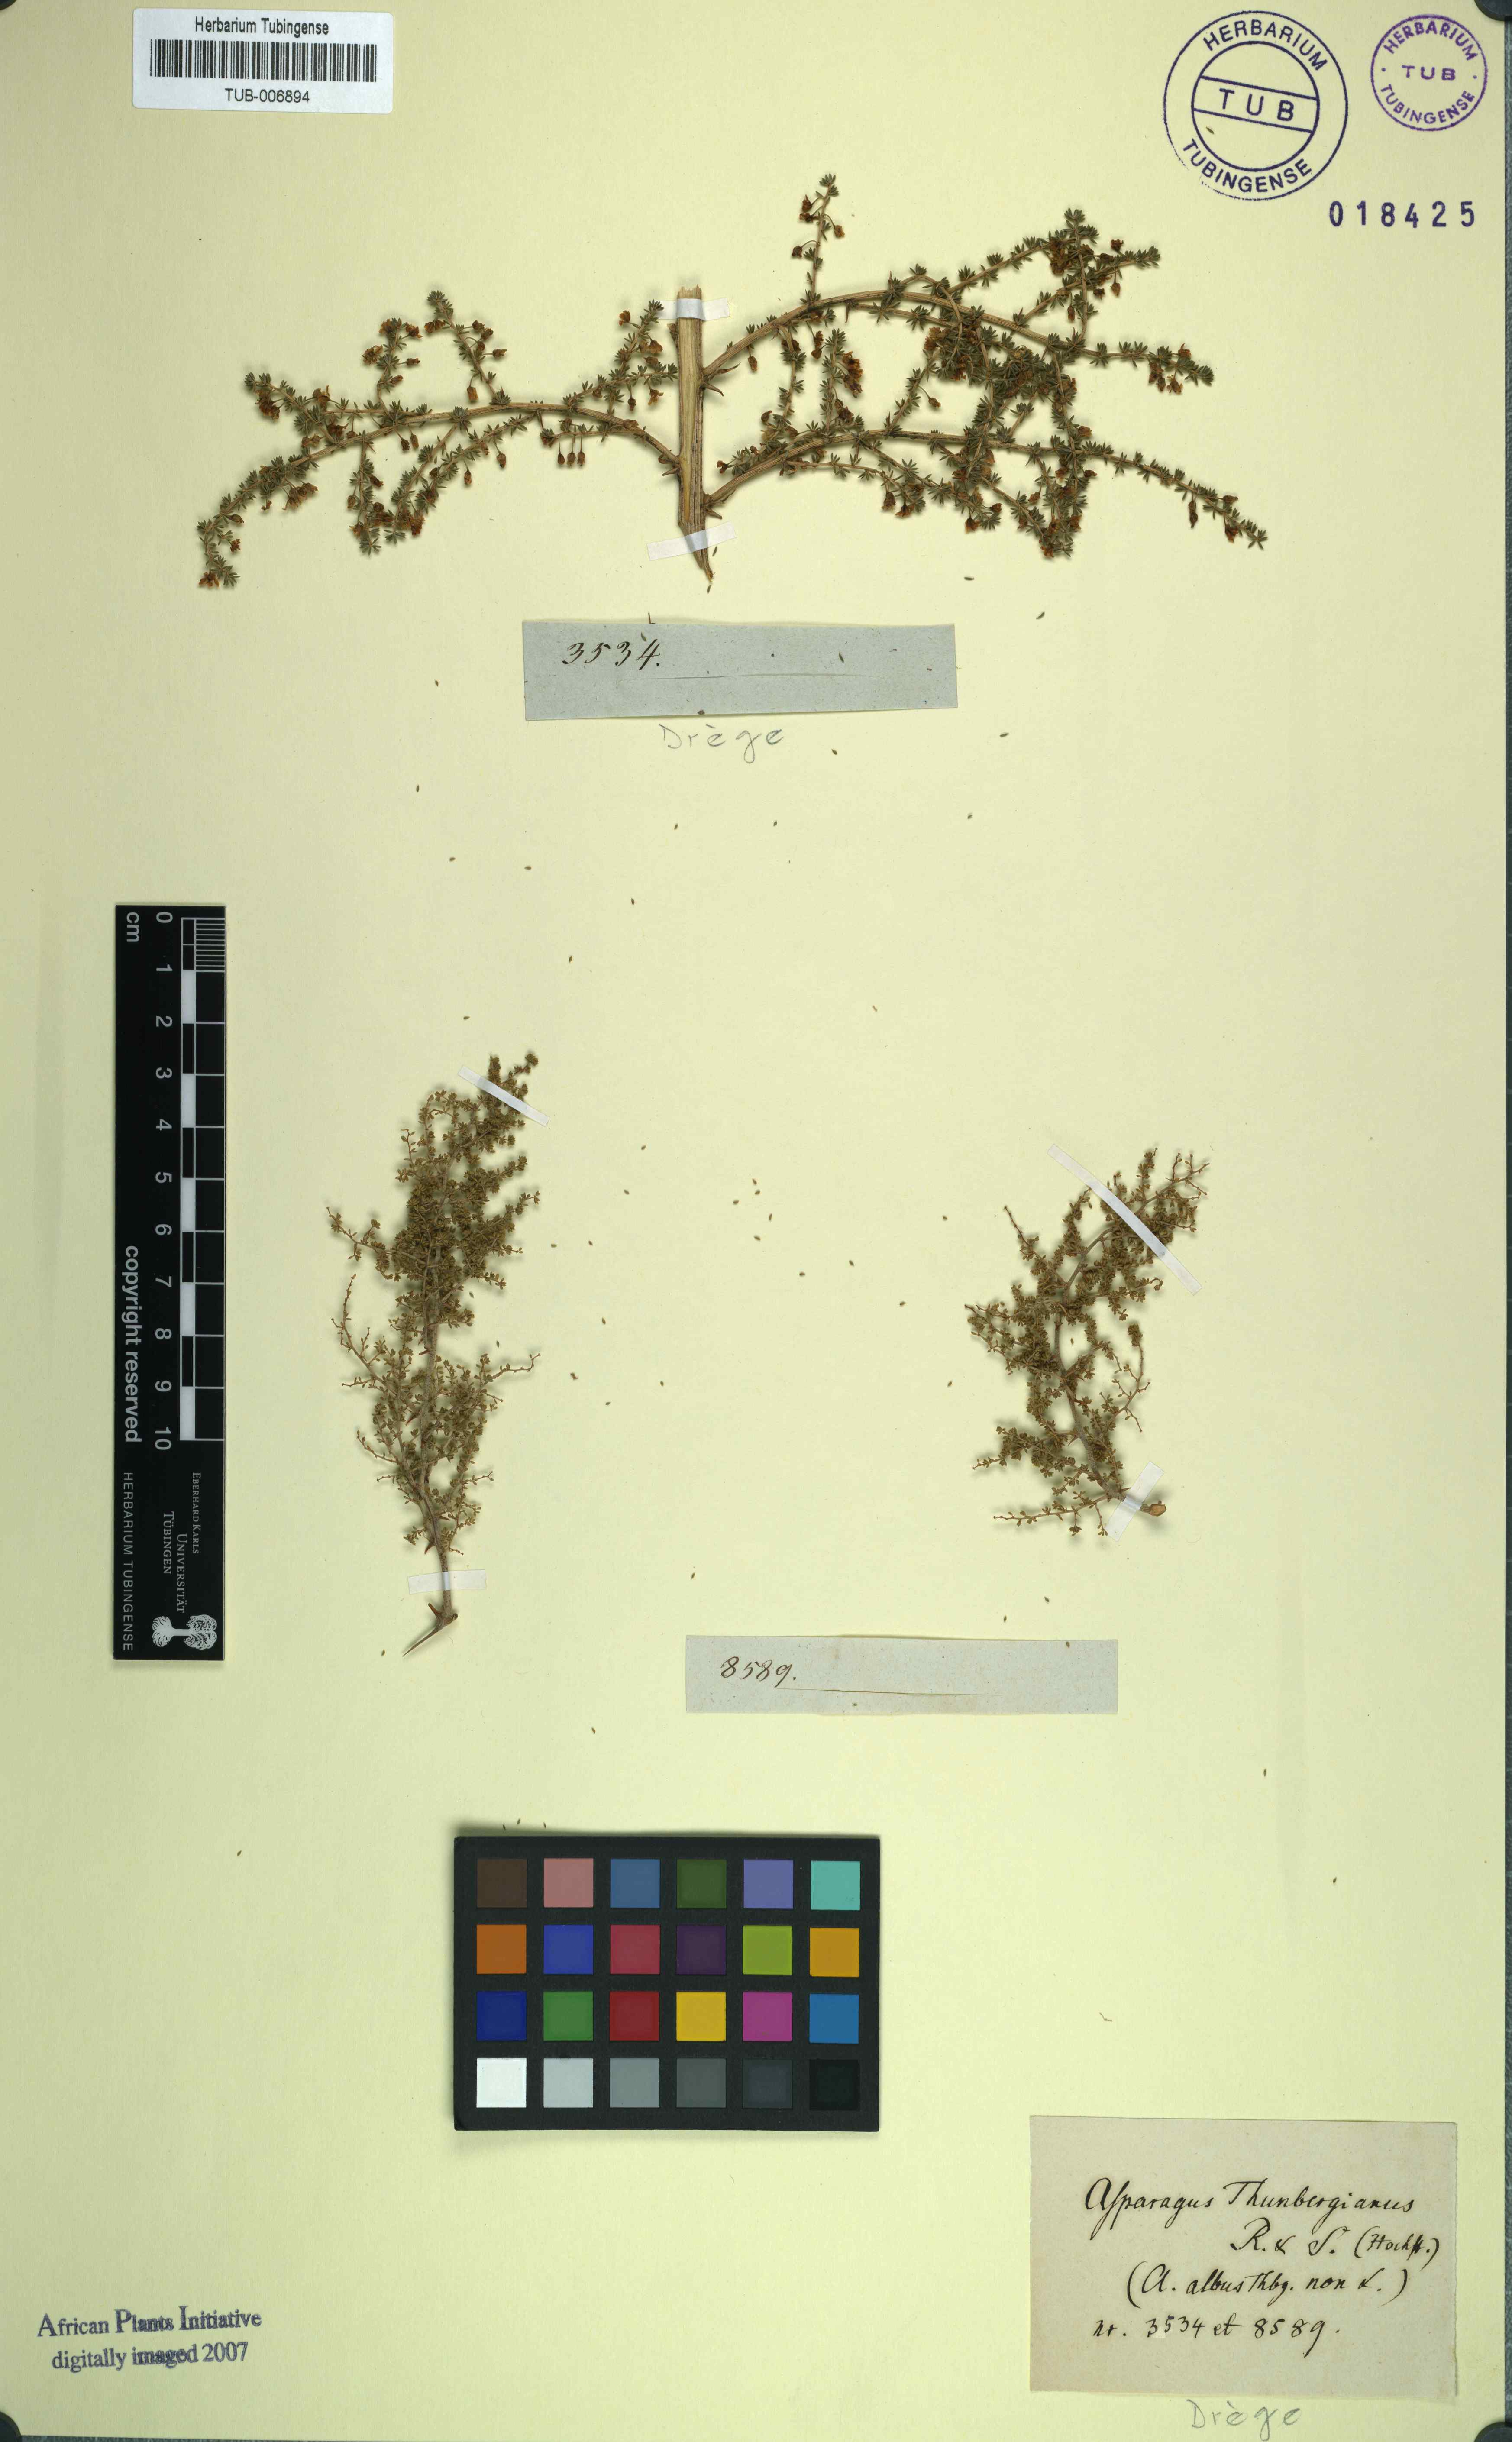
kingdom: Plantae
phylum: Tracheophyta
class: Liliopsida
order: Asparagales
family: Asparagaceae
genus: Asparagus
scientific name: Asparagus rubicundus
